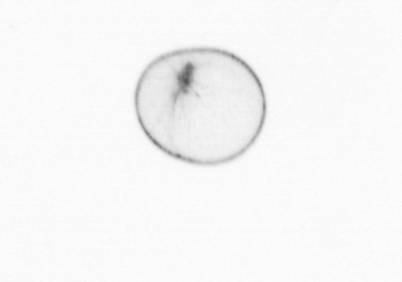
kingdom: Chromista
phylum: Myzozoa
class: Dinophyceae
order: Noctilucales
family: Noctilucaceae
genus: Noctiluca
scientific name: Noctiluca scintillans
